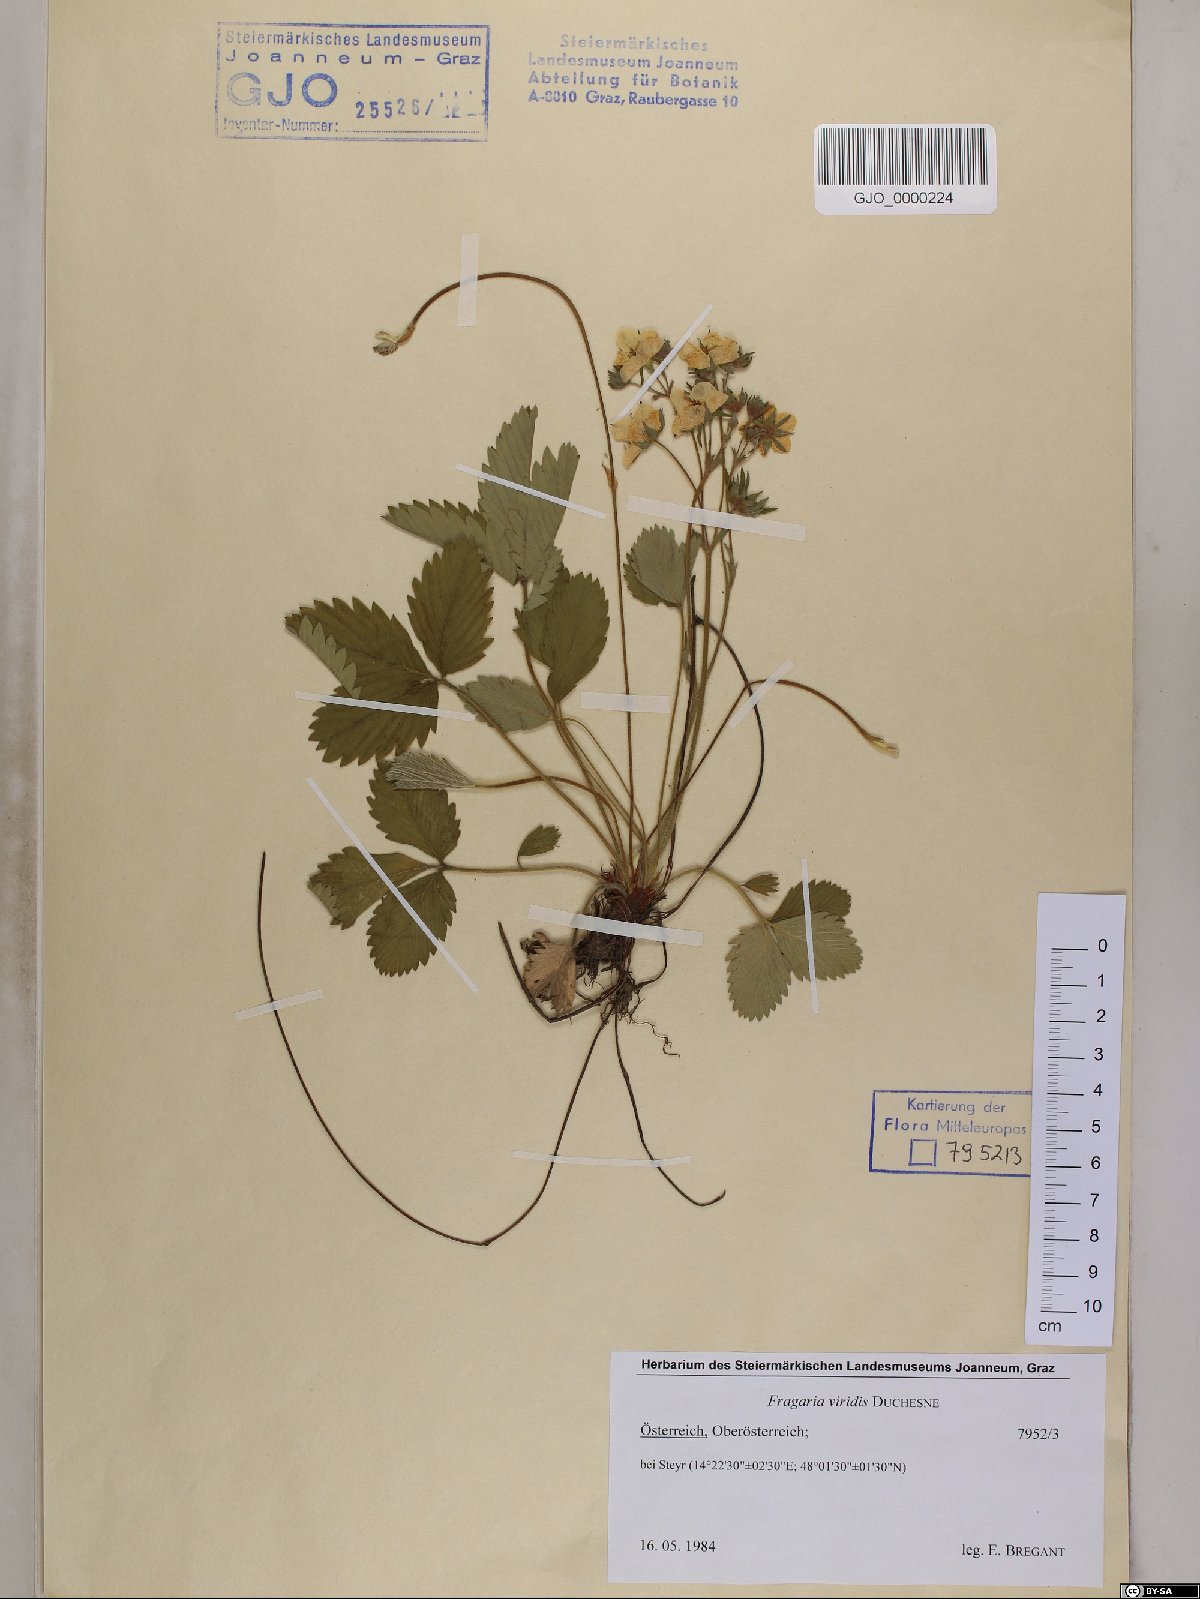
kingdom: Plantae
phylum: Tracheophyta
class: Magnoliopsida
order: Rosales
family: Rosaceae
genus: Fragaria
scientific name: Fragaria viridis
